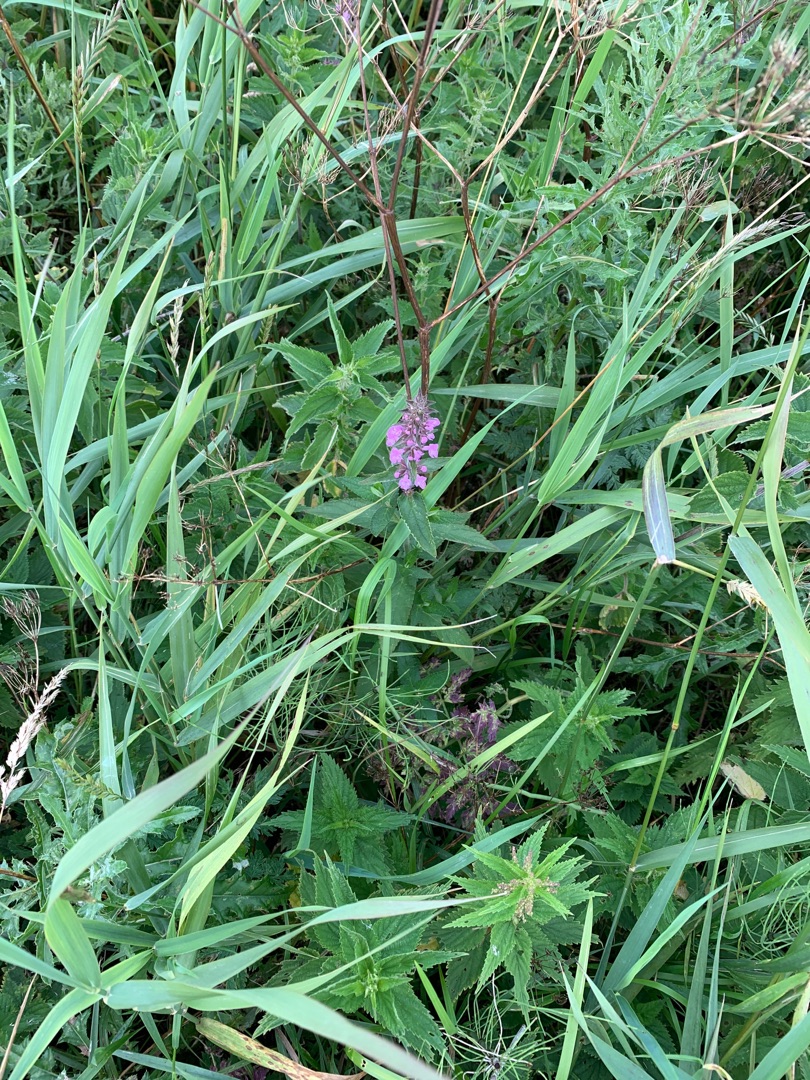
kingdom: Plantae
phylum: Tracheophyta
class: Magnoliopsida
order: Lamiales
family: Lamiaceae
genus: Stachys
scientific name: Stachys palustris
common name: Kær-galtetand
